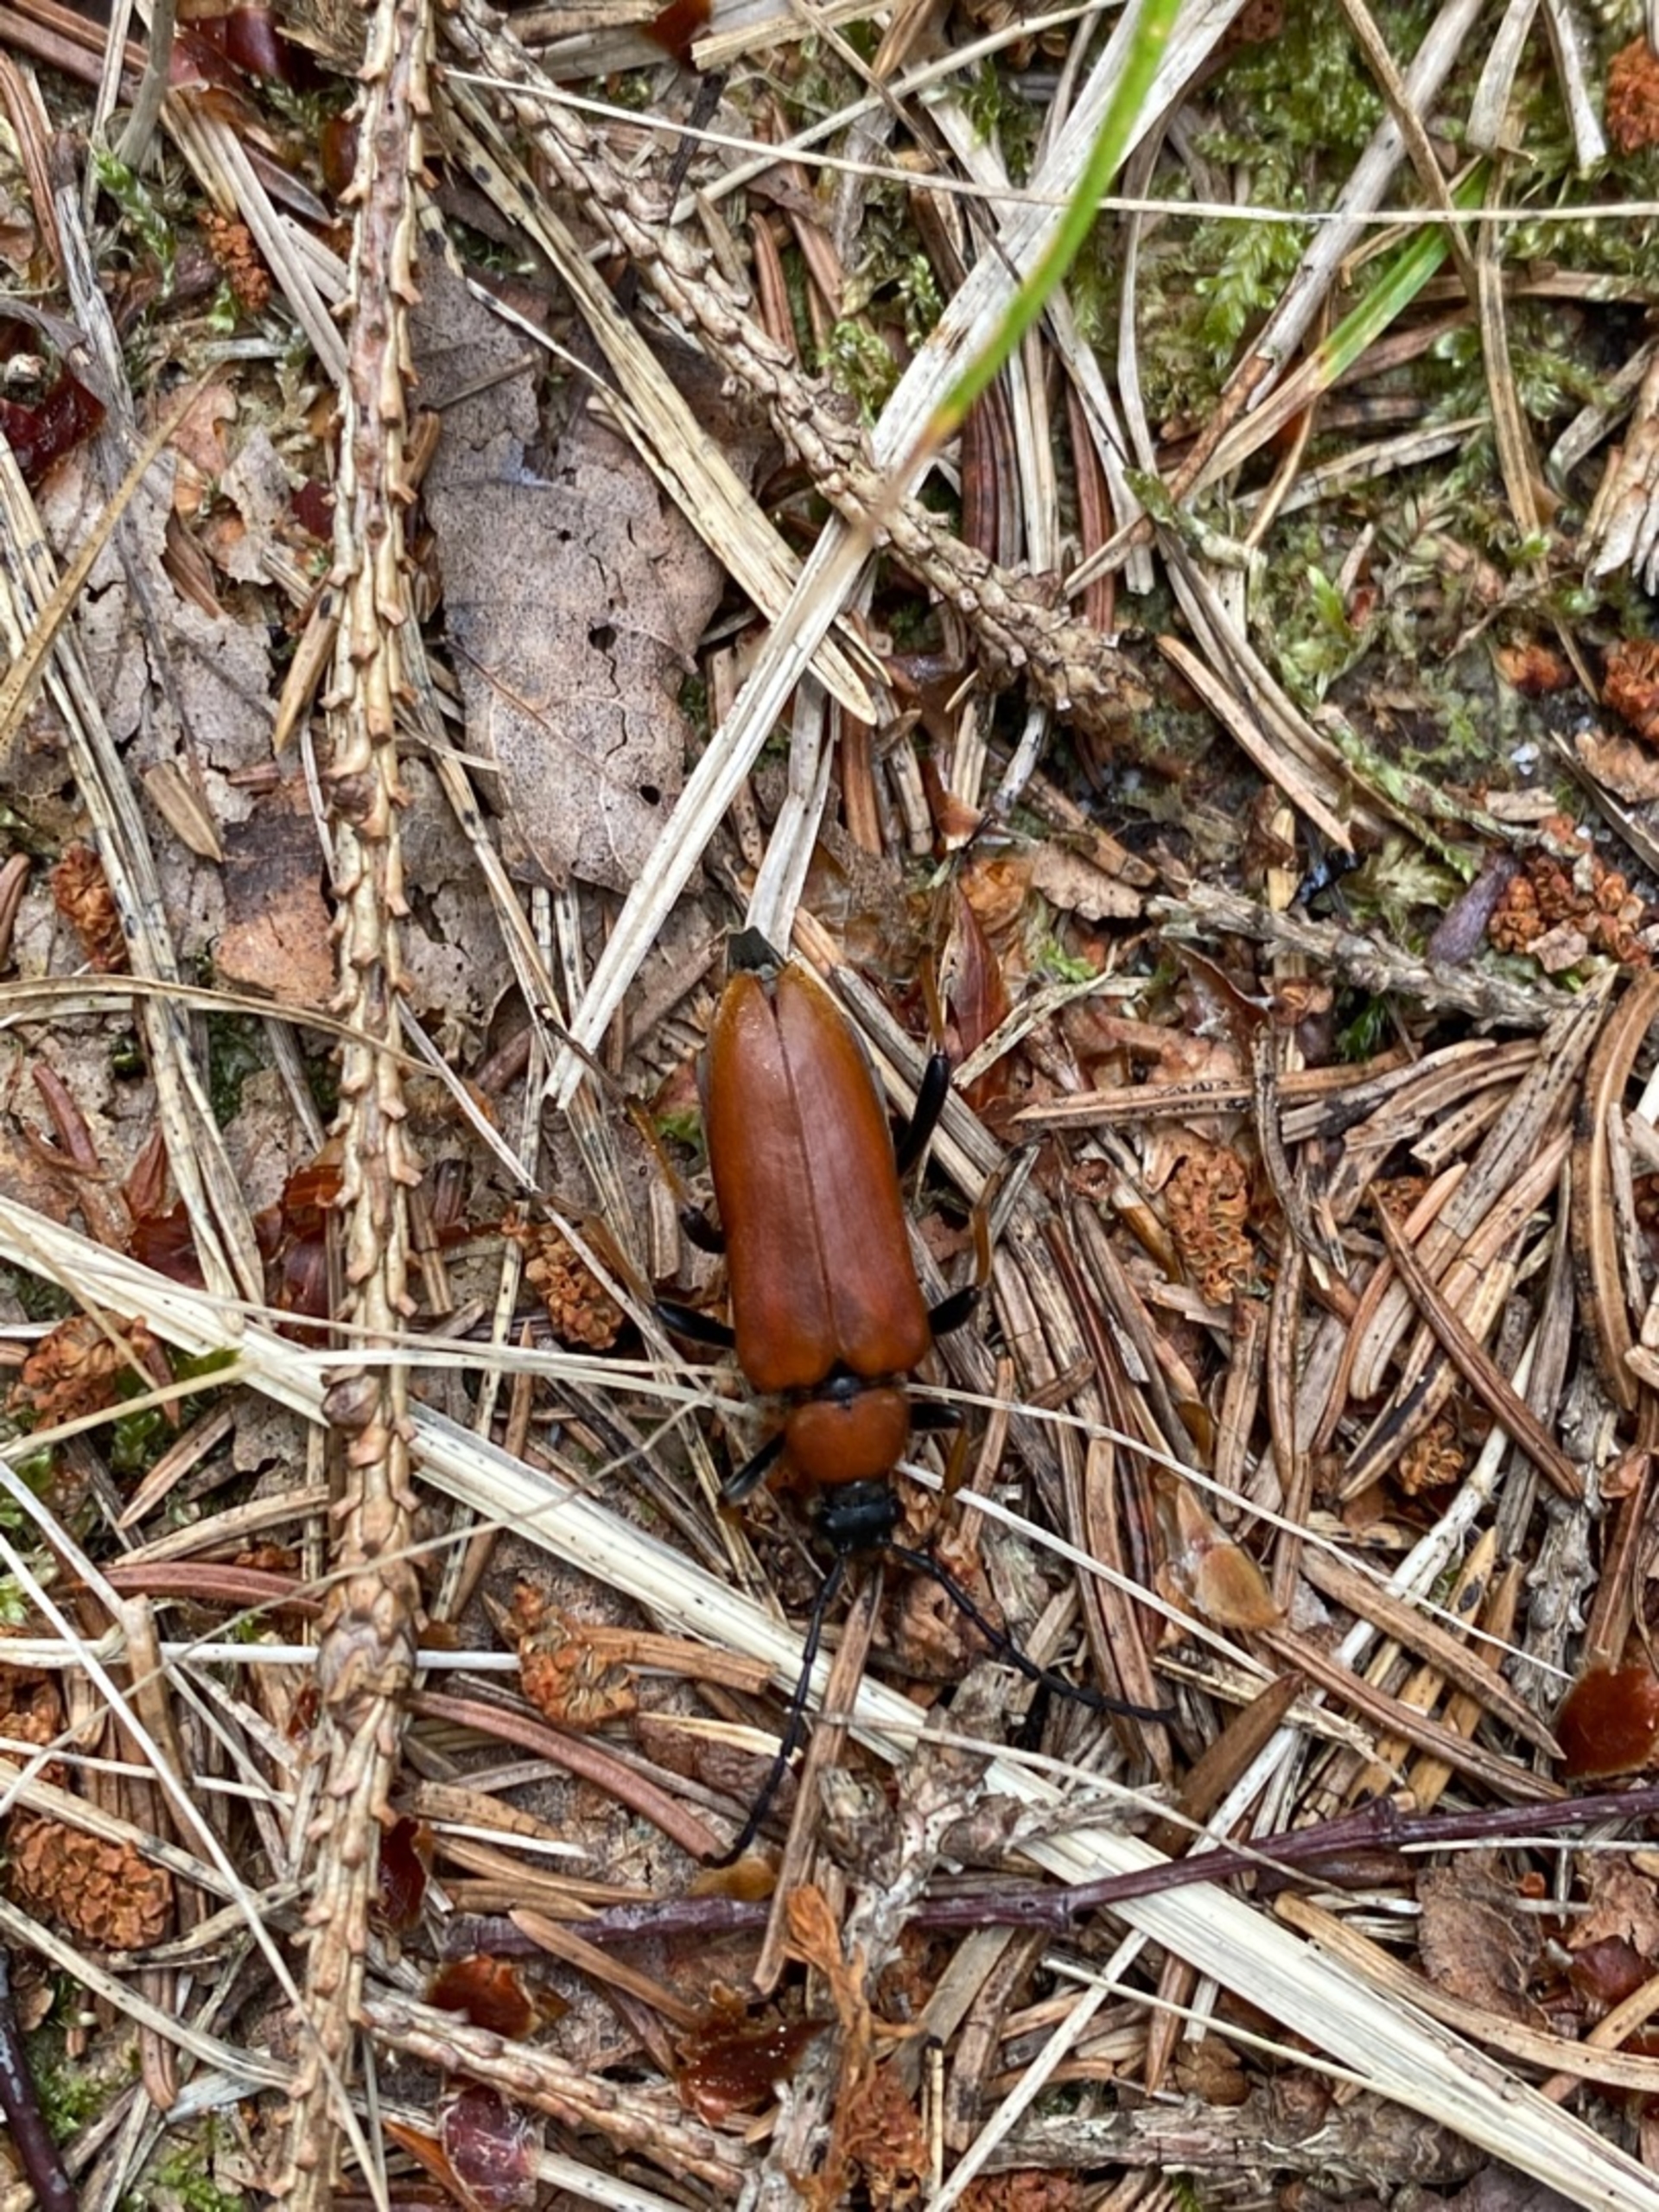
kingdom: Animalia
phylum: Arthropoda
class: Insecta
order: Coleoptera
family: Cerambycidae
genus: Stictoleptura
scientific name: Stictoleptura rubra
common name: Rød blomsterbuk
